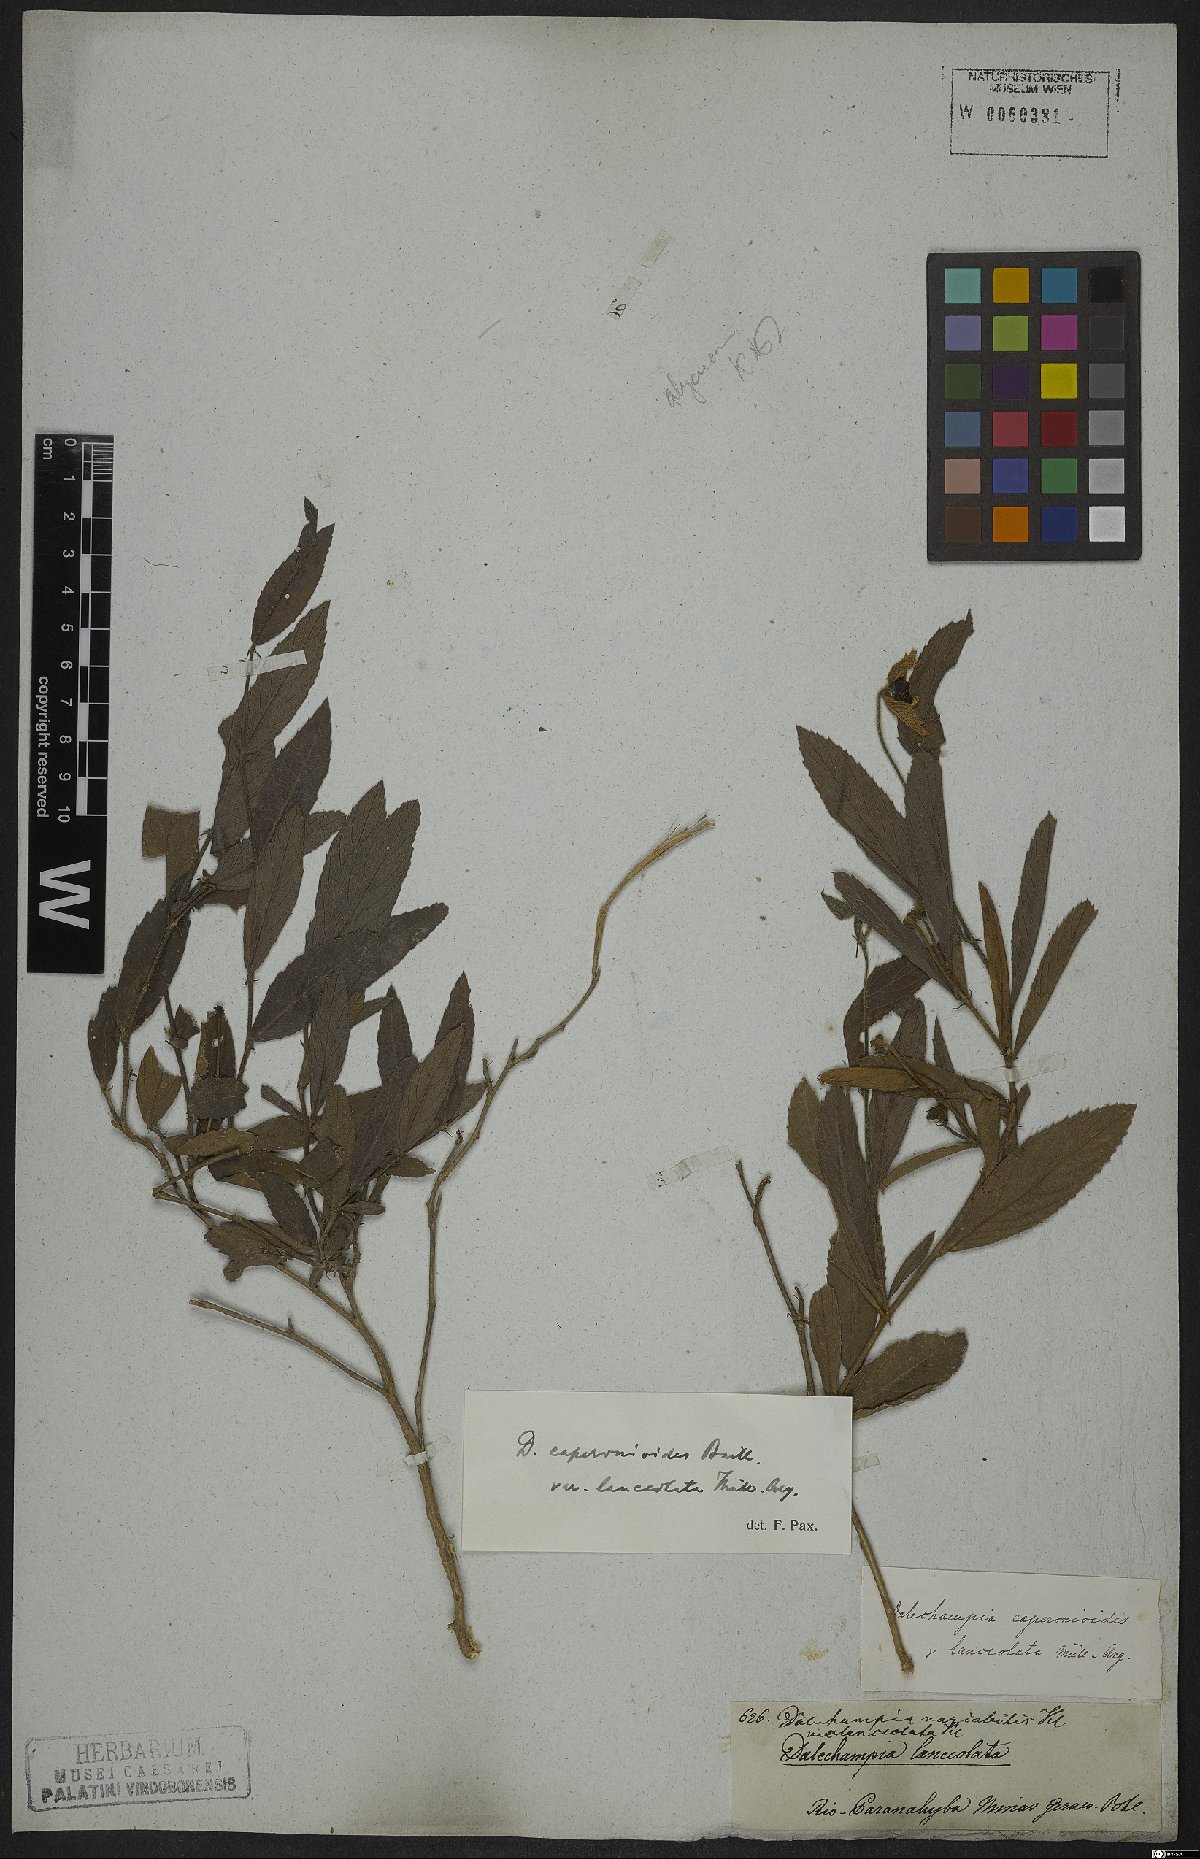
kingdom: Plantae
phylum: Tracheophyta
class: Magnoliopsida
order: Malpighiales
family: Euphorbiaceae
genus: Dalechampia
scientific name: Dalechampia caperonioides
